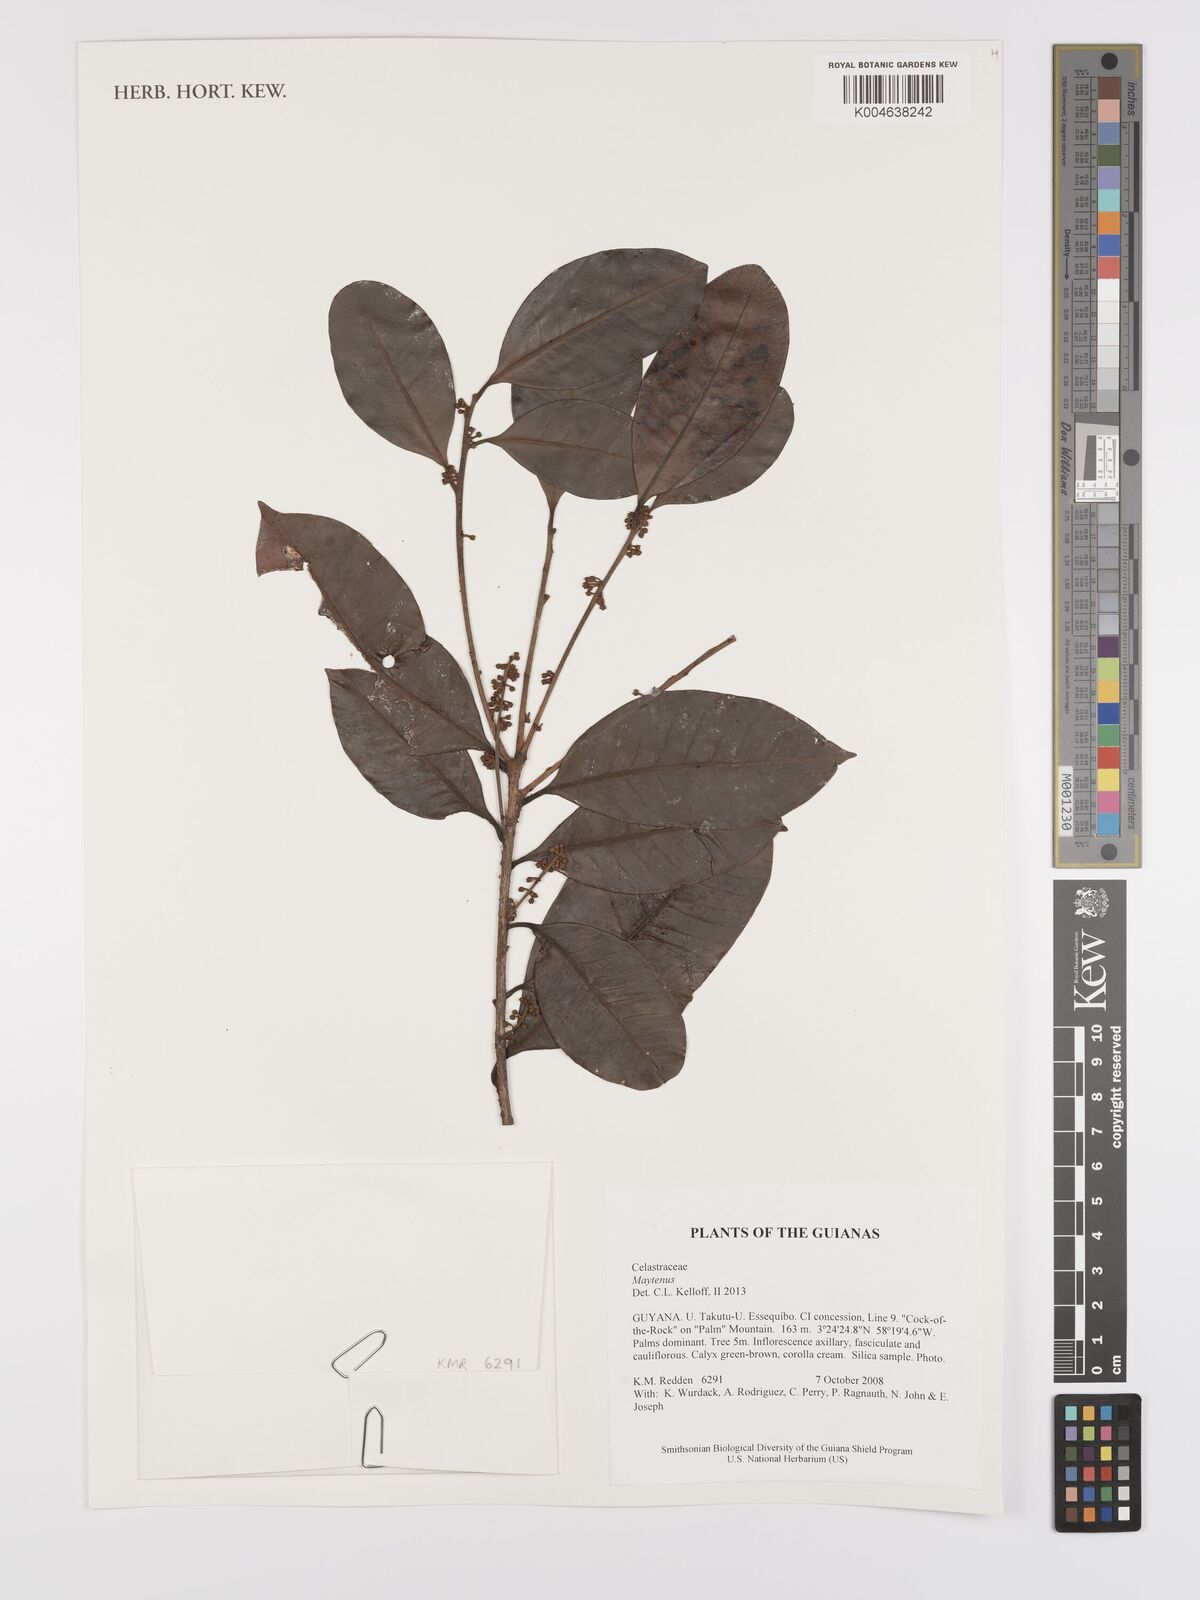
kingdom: Plantae
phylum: Tracheophyta
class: Magnoliopsida
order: Celastrales
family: Celastraceae
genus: Maytenus
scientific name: Maytenus
